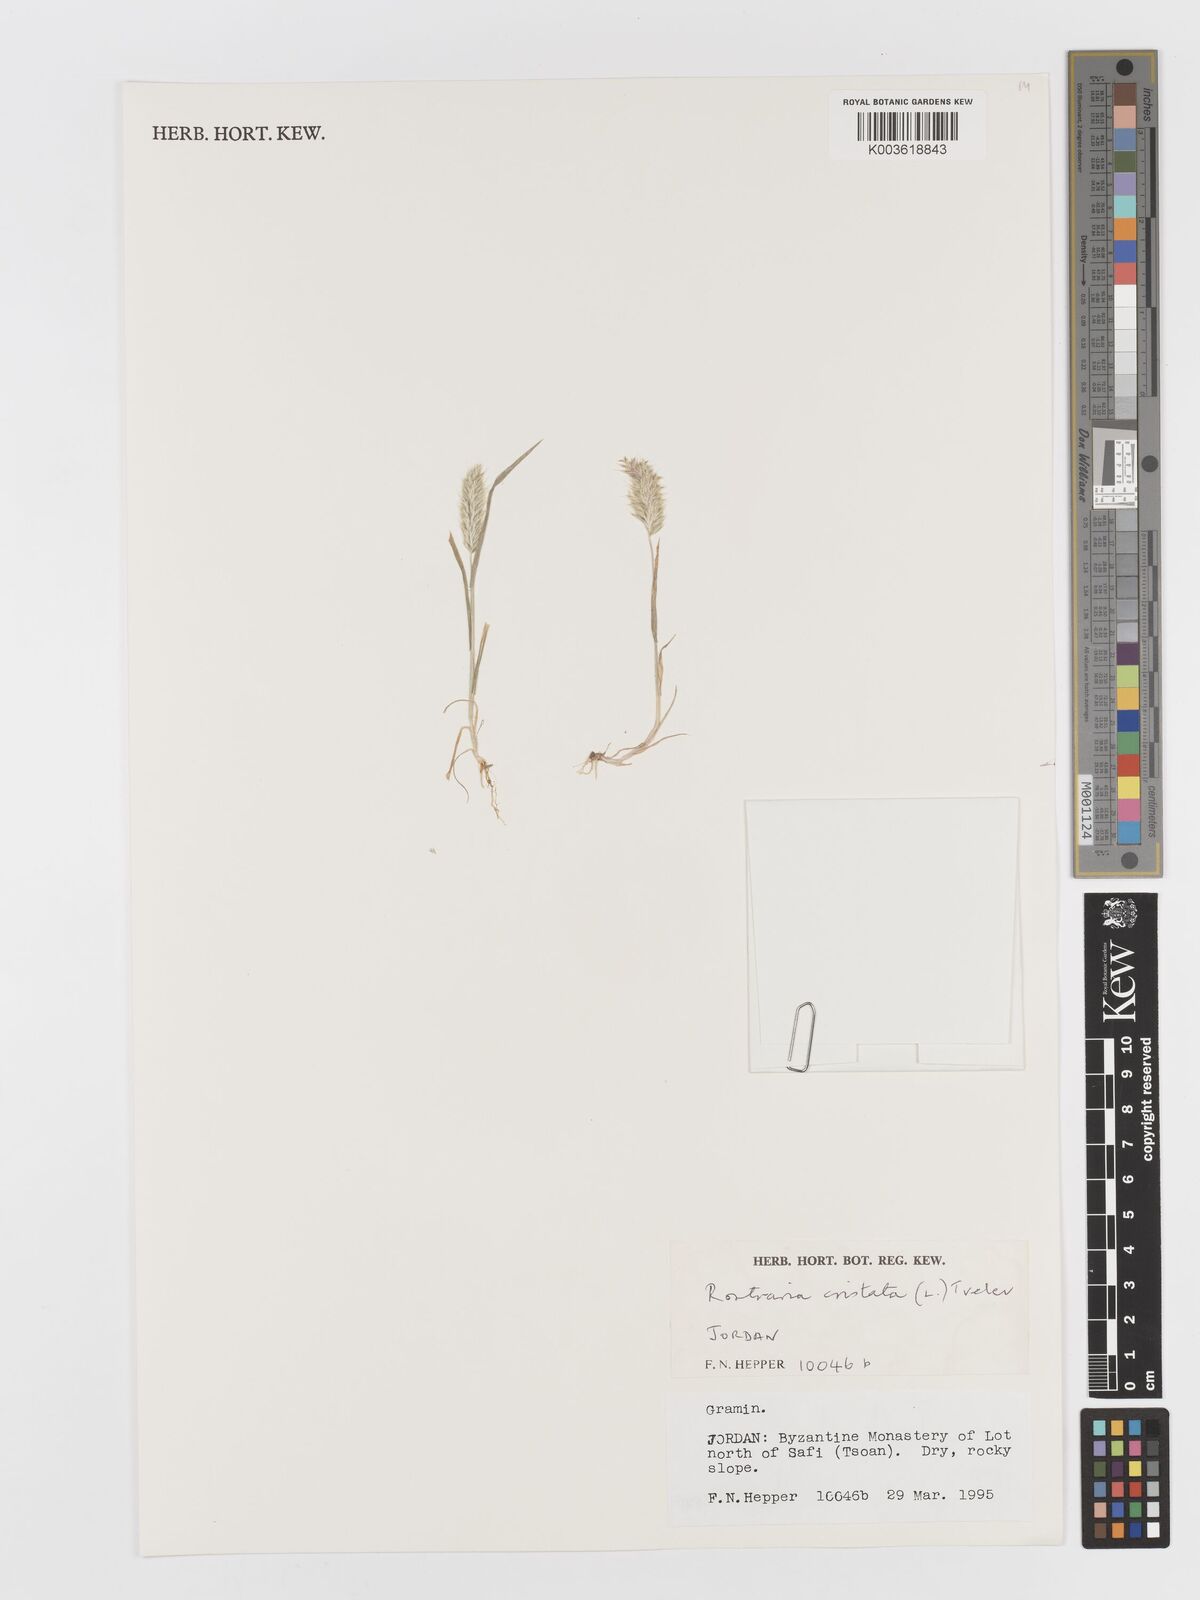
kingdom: Plantae
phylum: Tracheophyta
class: Liliopsida
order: Poales
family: Poaceae
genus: Rostraria
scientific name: Rostraria cristata
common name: Mediterranean hair-grass
